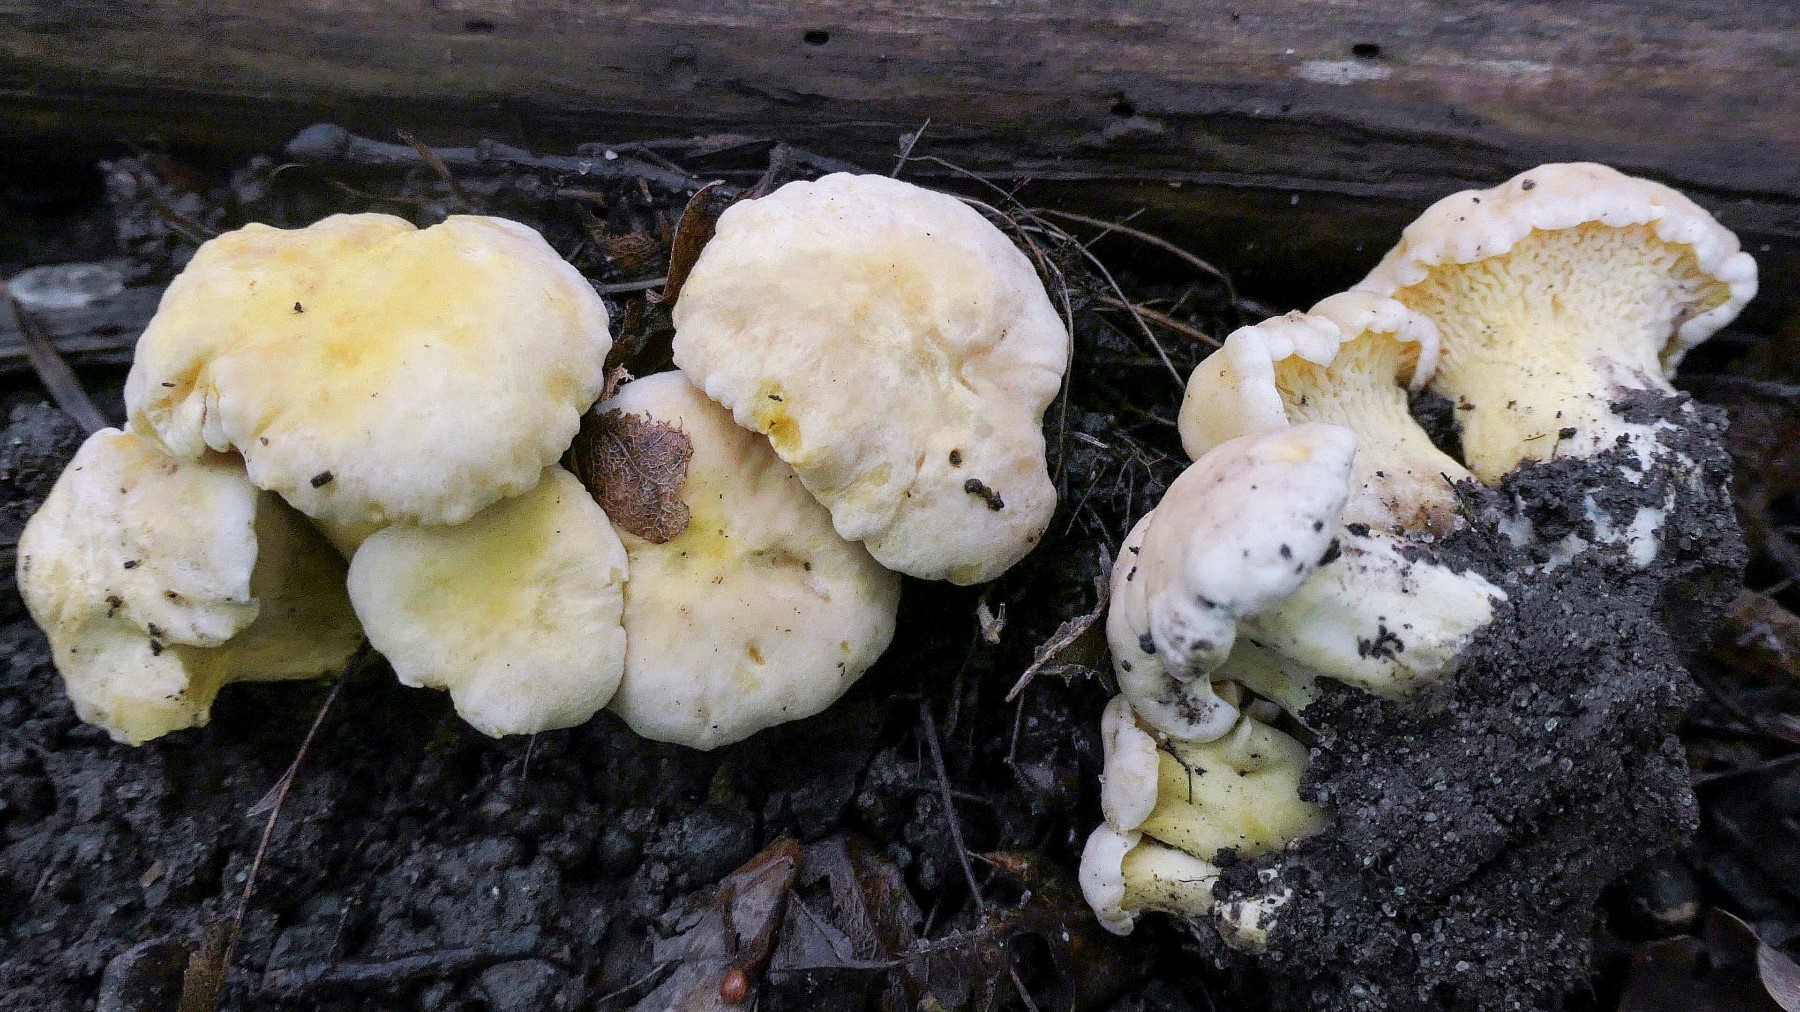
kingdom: Fungi
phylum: Basidiomycota
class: Agaricomycetes
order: Cantharellales
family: Hydnaceae
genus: Cantharellus
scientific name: Cantharellus pallens
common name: bleg kantarel
